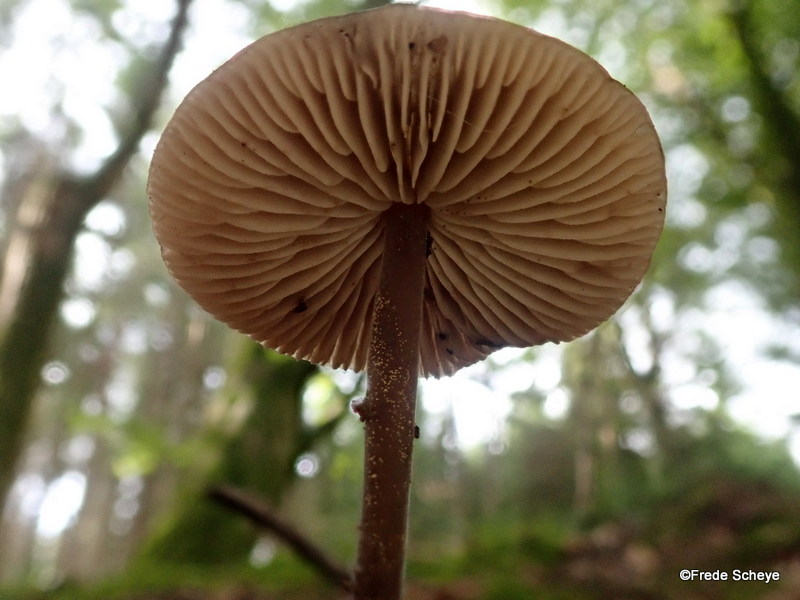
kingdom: Fungi
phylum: Basidiomycota
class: Agaricomycetes
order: Agaricales
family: Omphalotaceae
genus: Mycetinis
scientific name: Mycetinis alliaceus
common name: stor løghat
